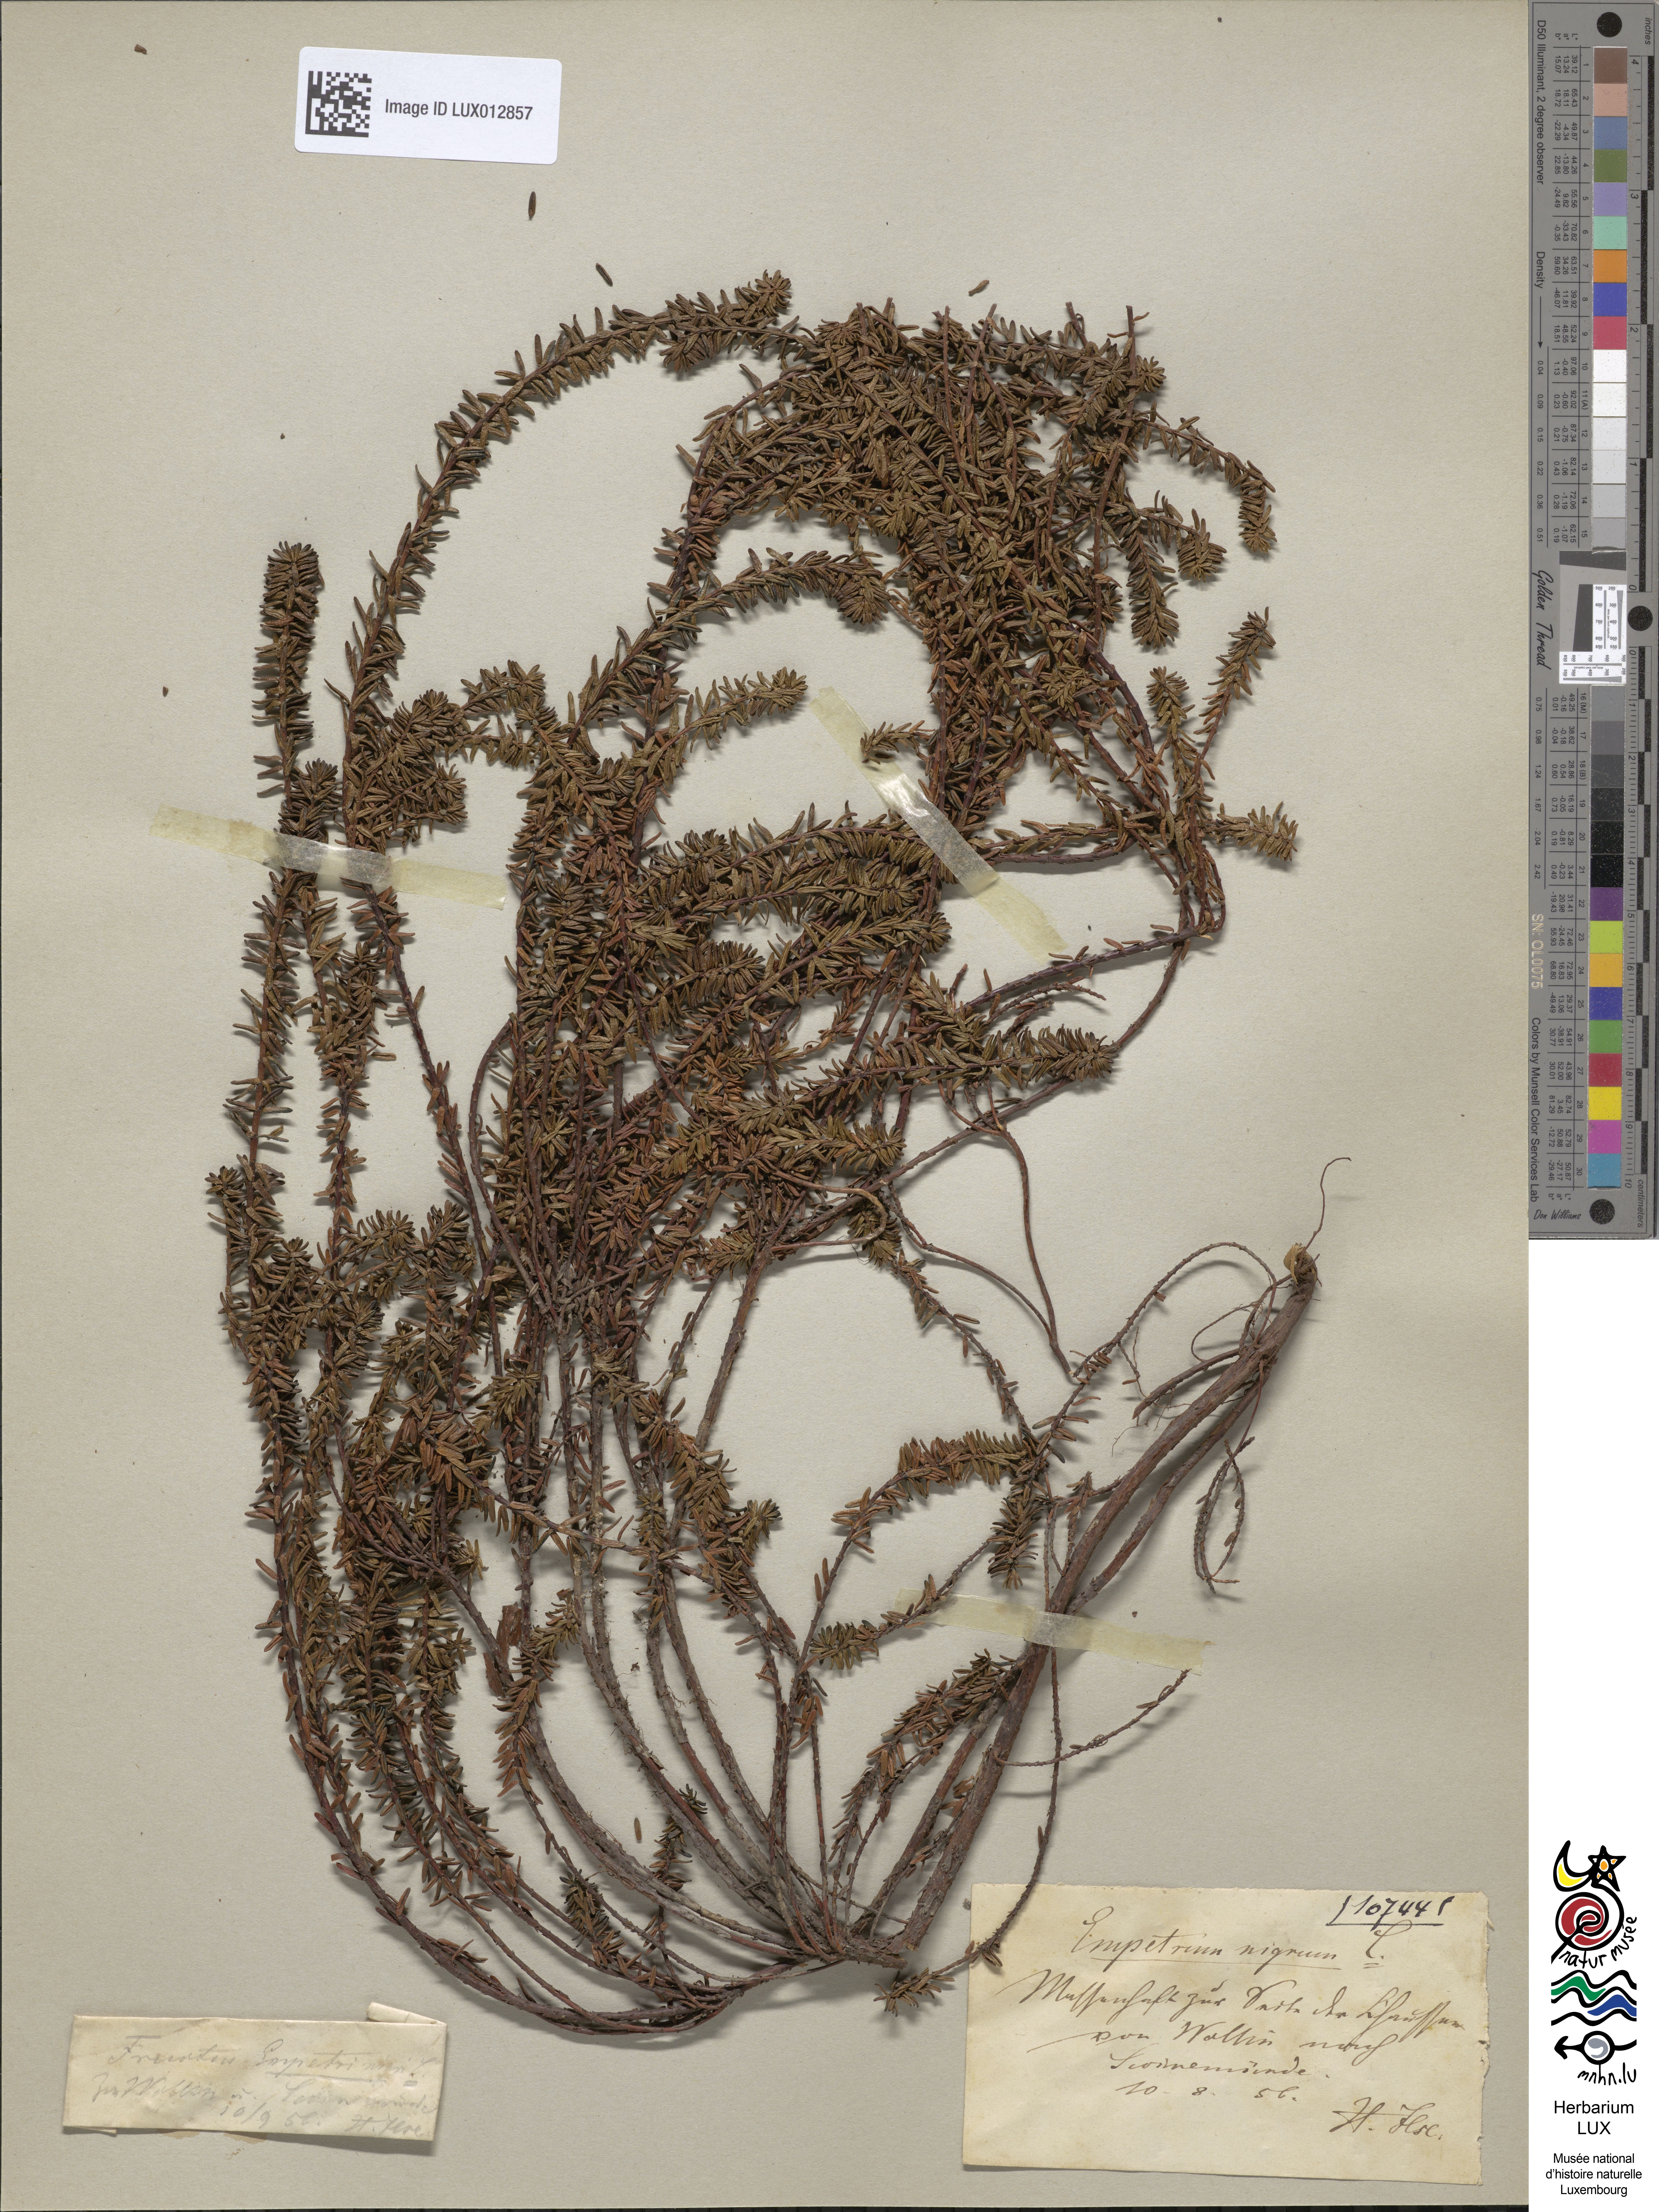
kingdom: Plantae
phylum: Tracheophyta
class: Magnoliopsida
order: Ericales
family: Ericaceae
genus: Empetrum
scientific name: Empetrum nigrum
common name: Black crowberry
